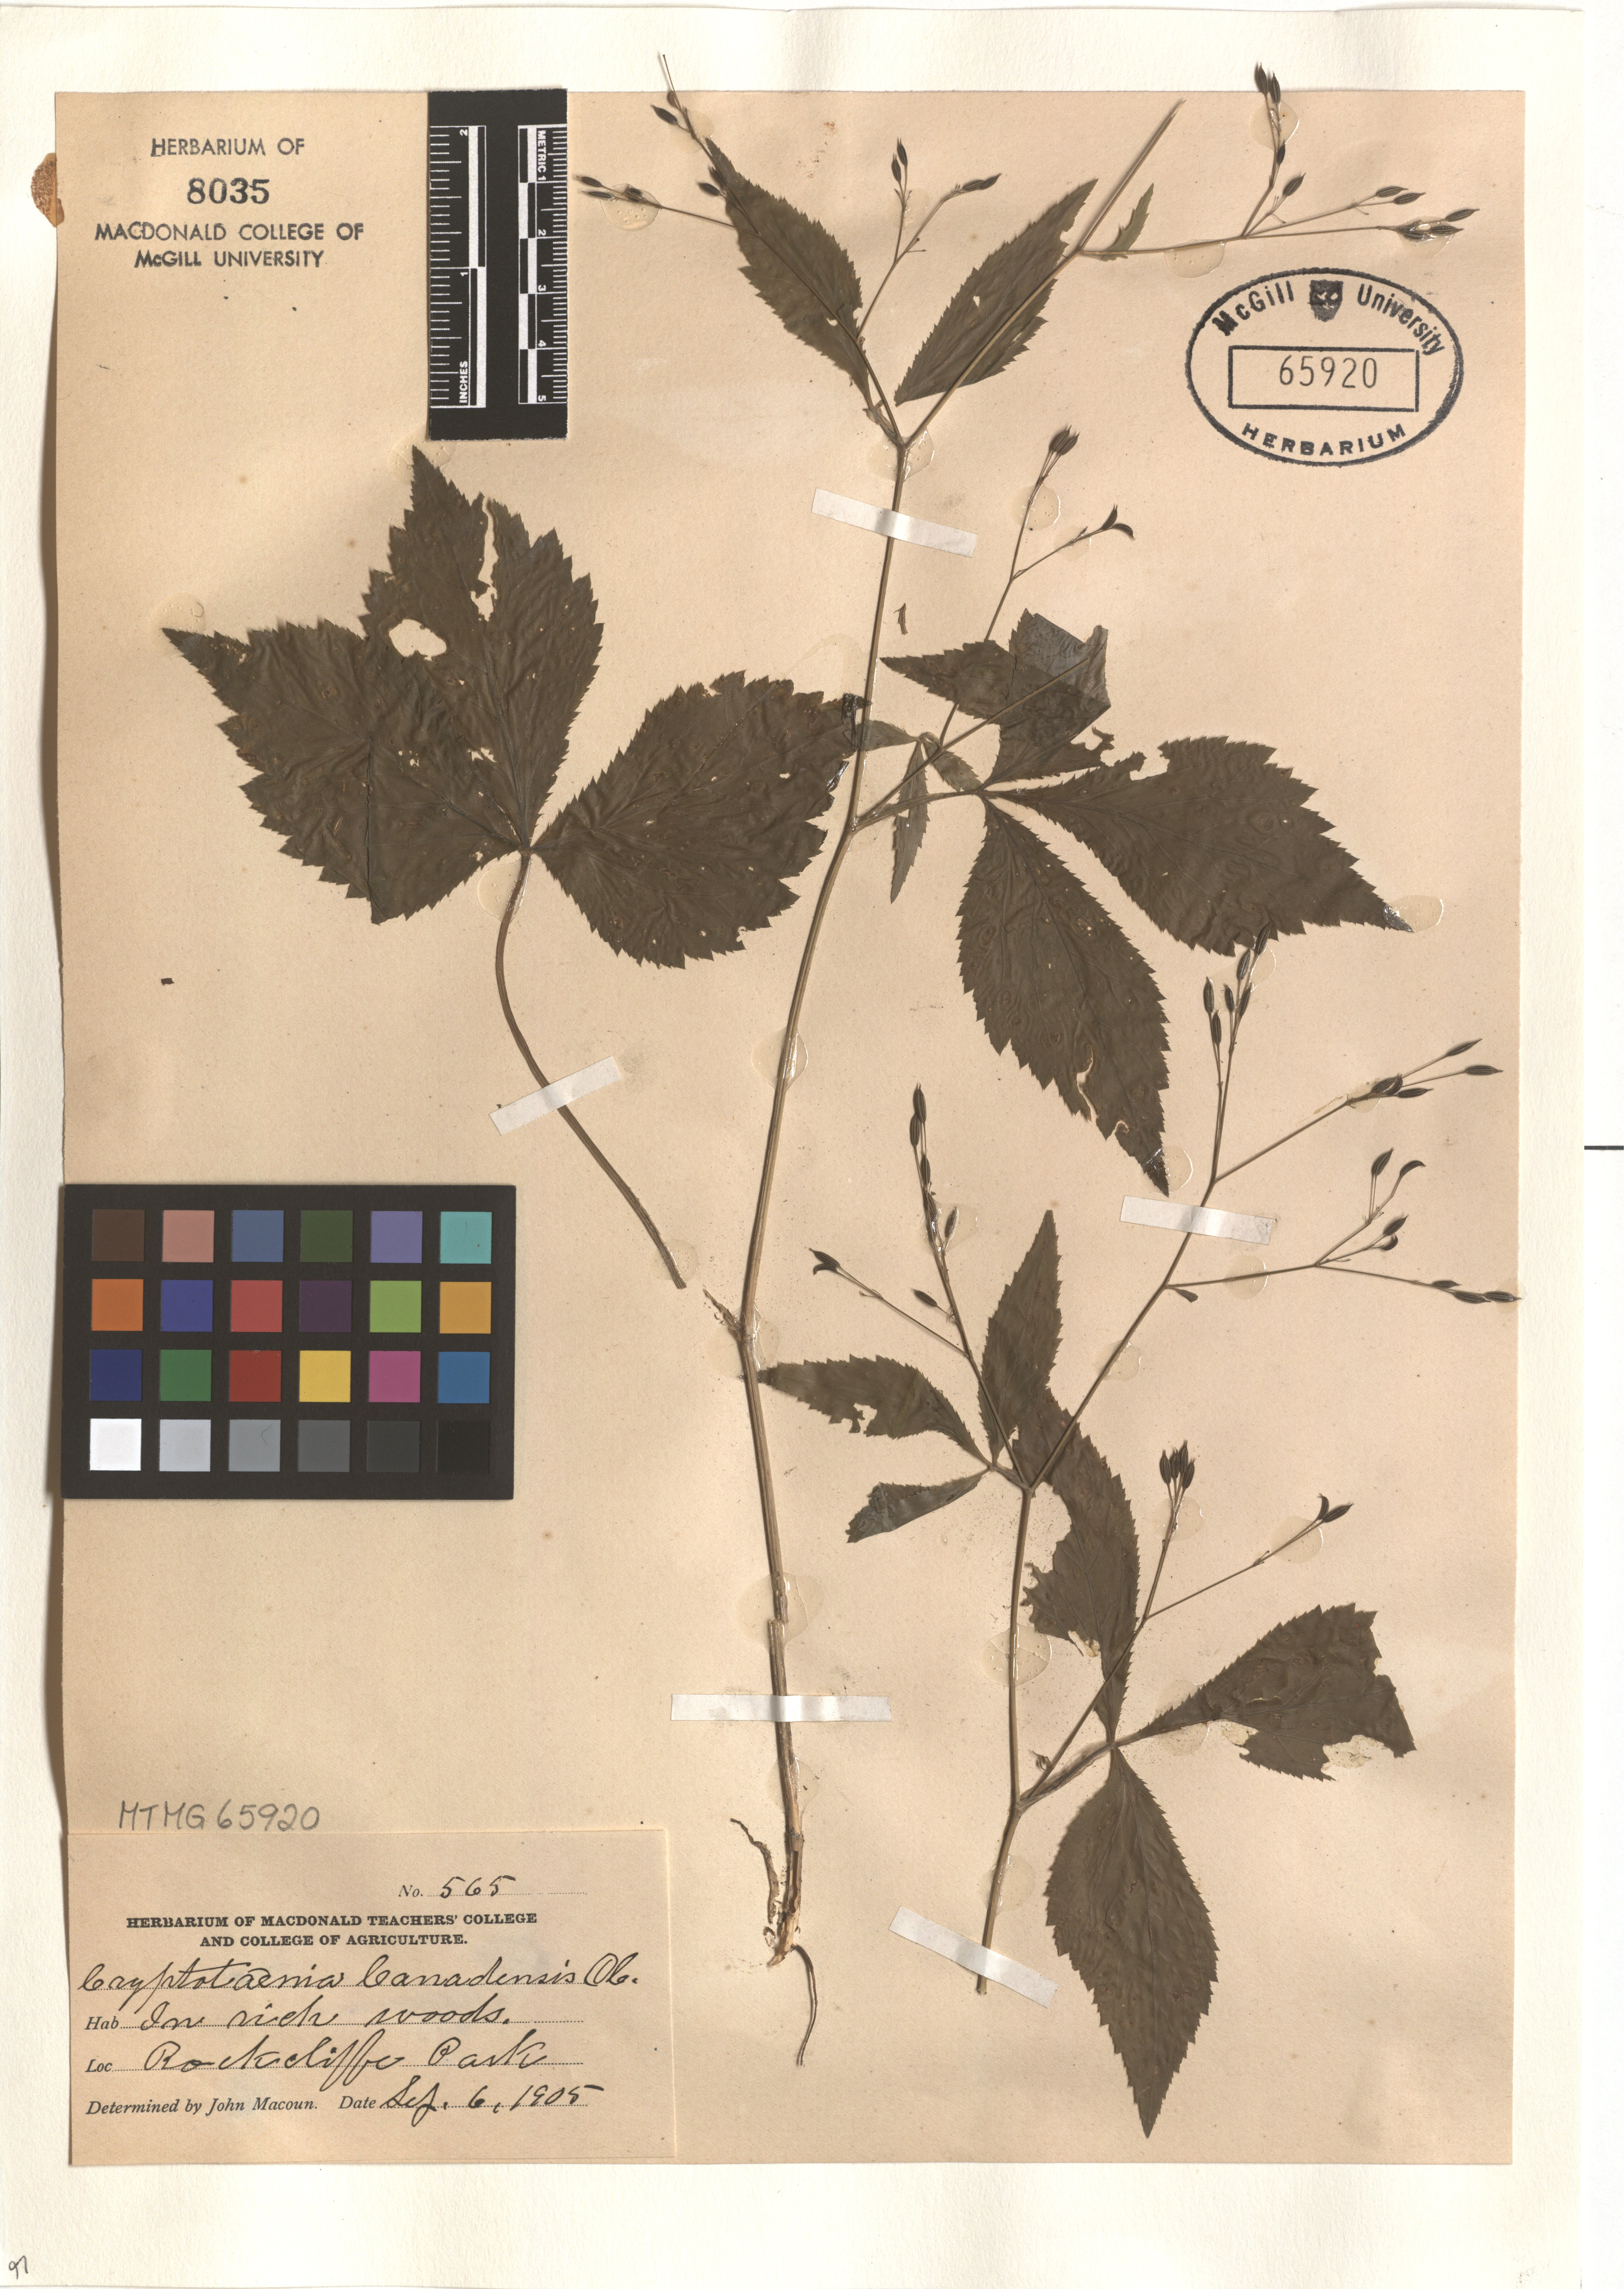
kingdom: Plantae
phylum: Tracheophyta
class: Magnoliopsida
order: Apiales
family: Apiaceae
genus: Cryptotaenia
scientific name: Cryptotaenia canadensis
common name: Honewort
